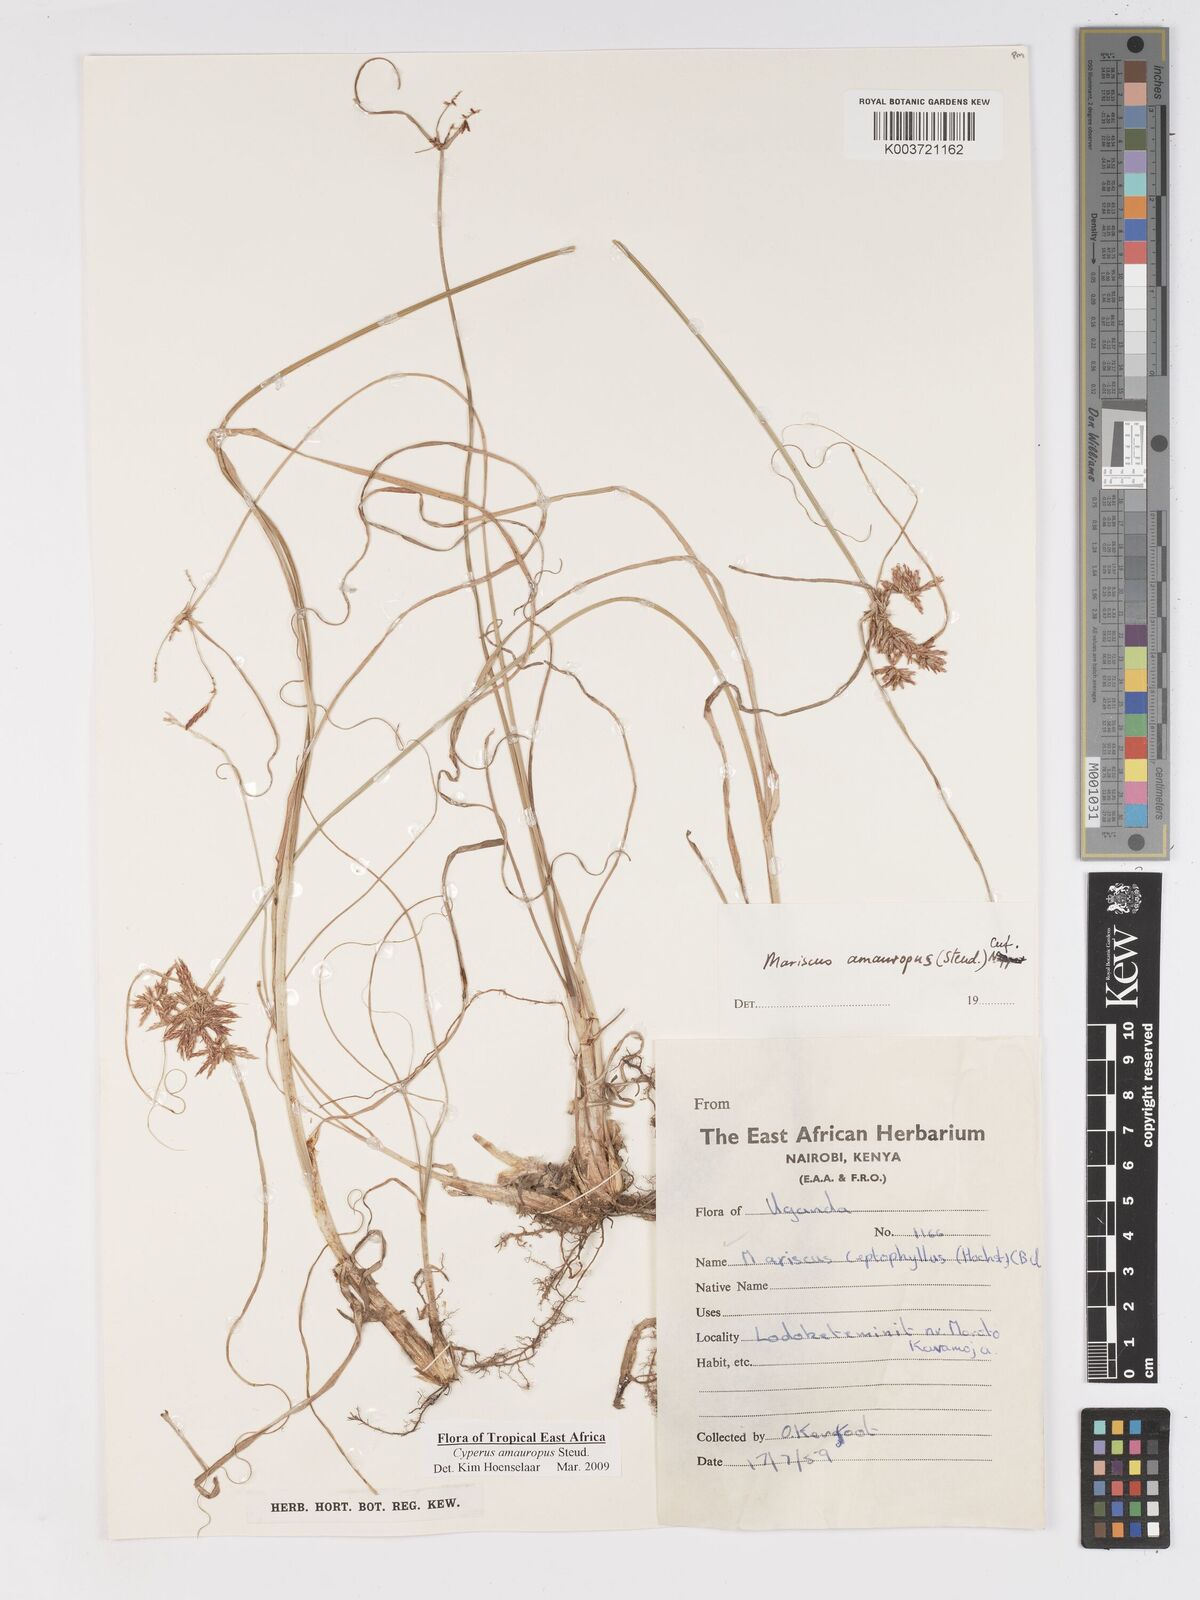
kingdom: Plantae
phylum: Tracheophyta
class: Liliopsida
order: Poales
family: Cyperaceae
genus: Cyperus
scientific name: Cyperus amauropus
